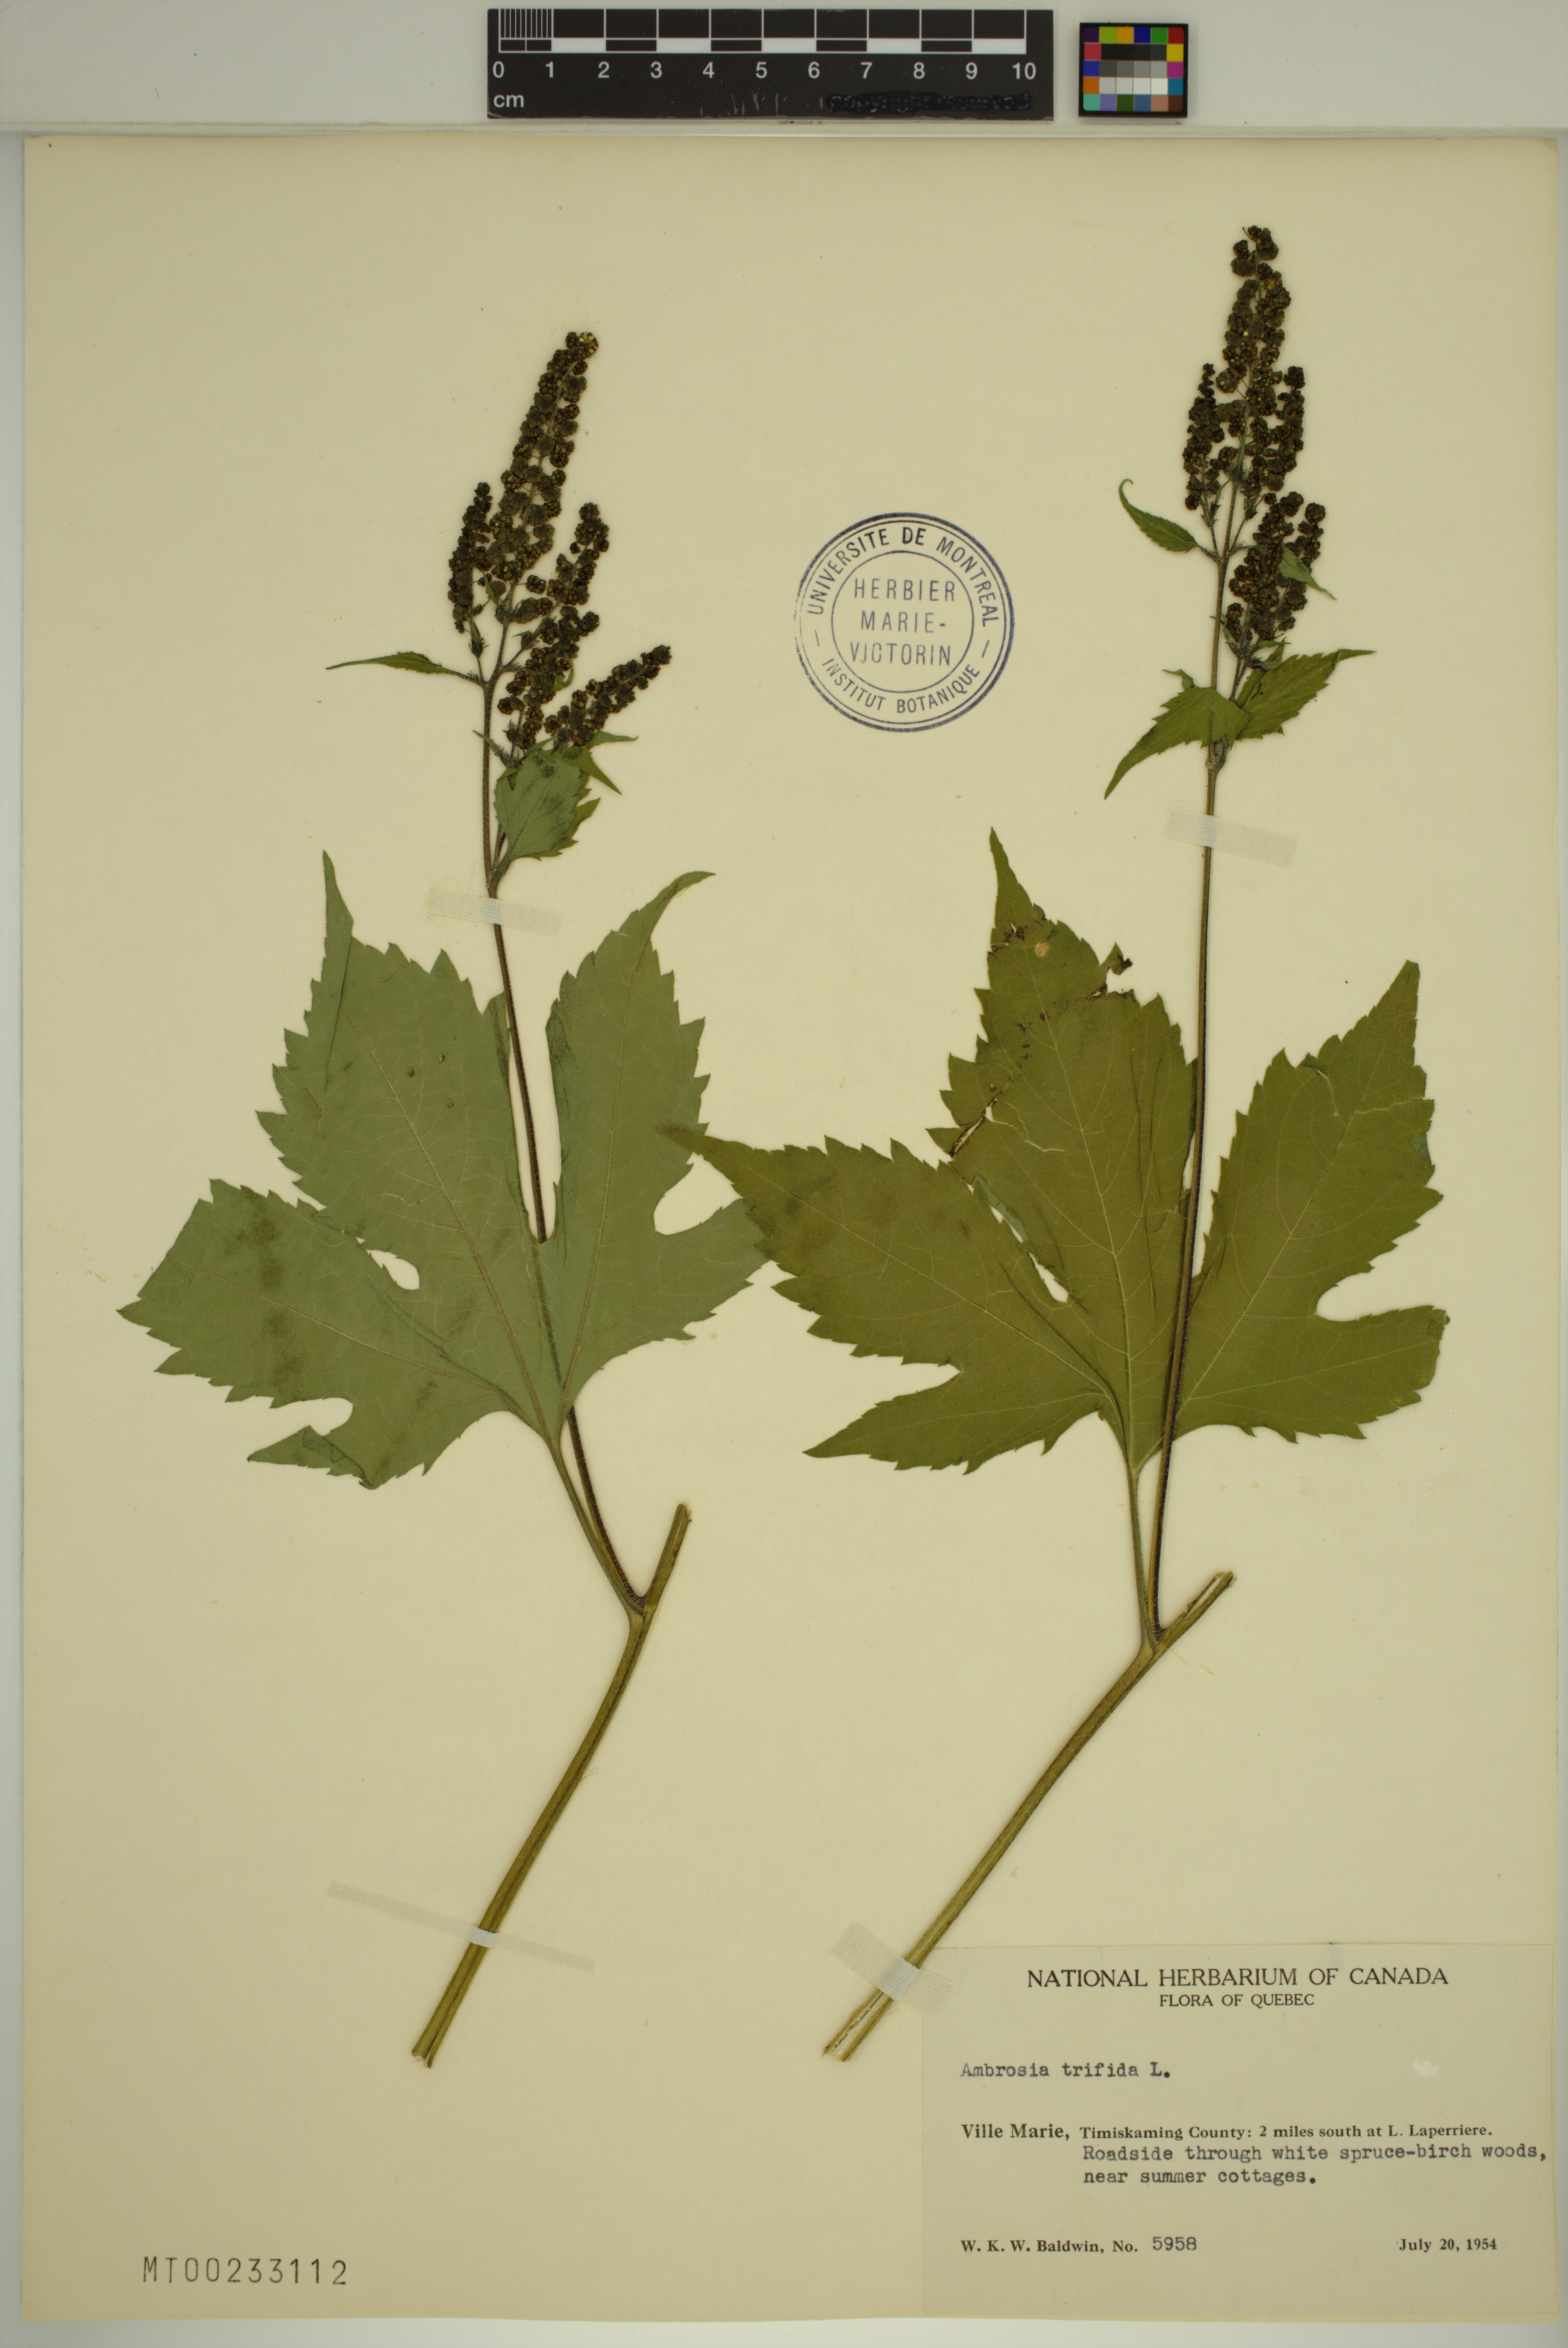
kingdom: Plantae
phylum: Tracheophyta
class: Magnoliopsida
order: Asterales
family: Asteraceae
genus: Ambrosia
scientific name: Ambrosia trifida
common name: Giant ragweed
